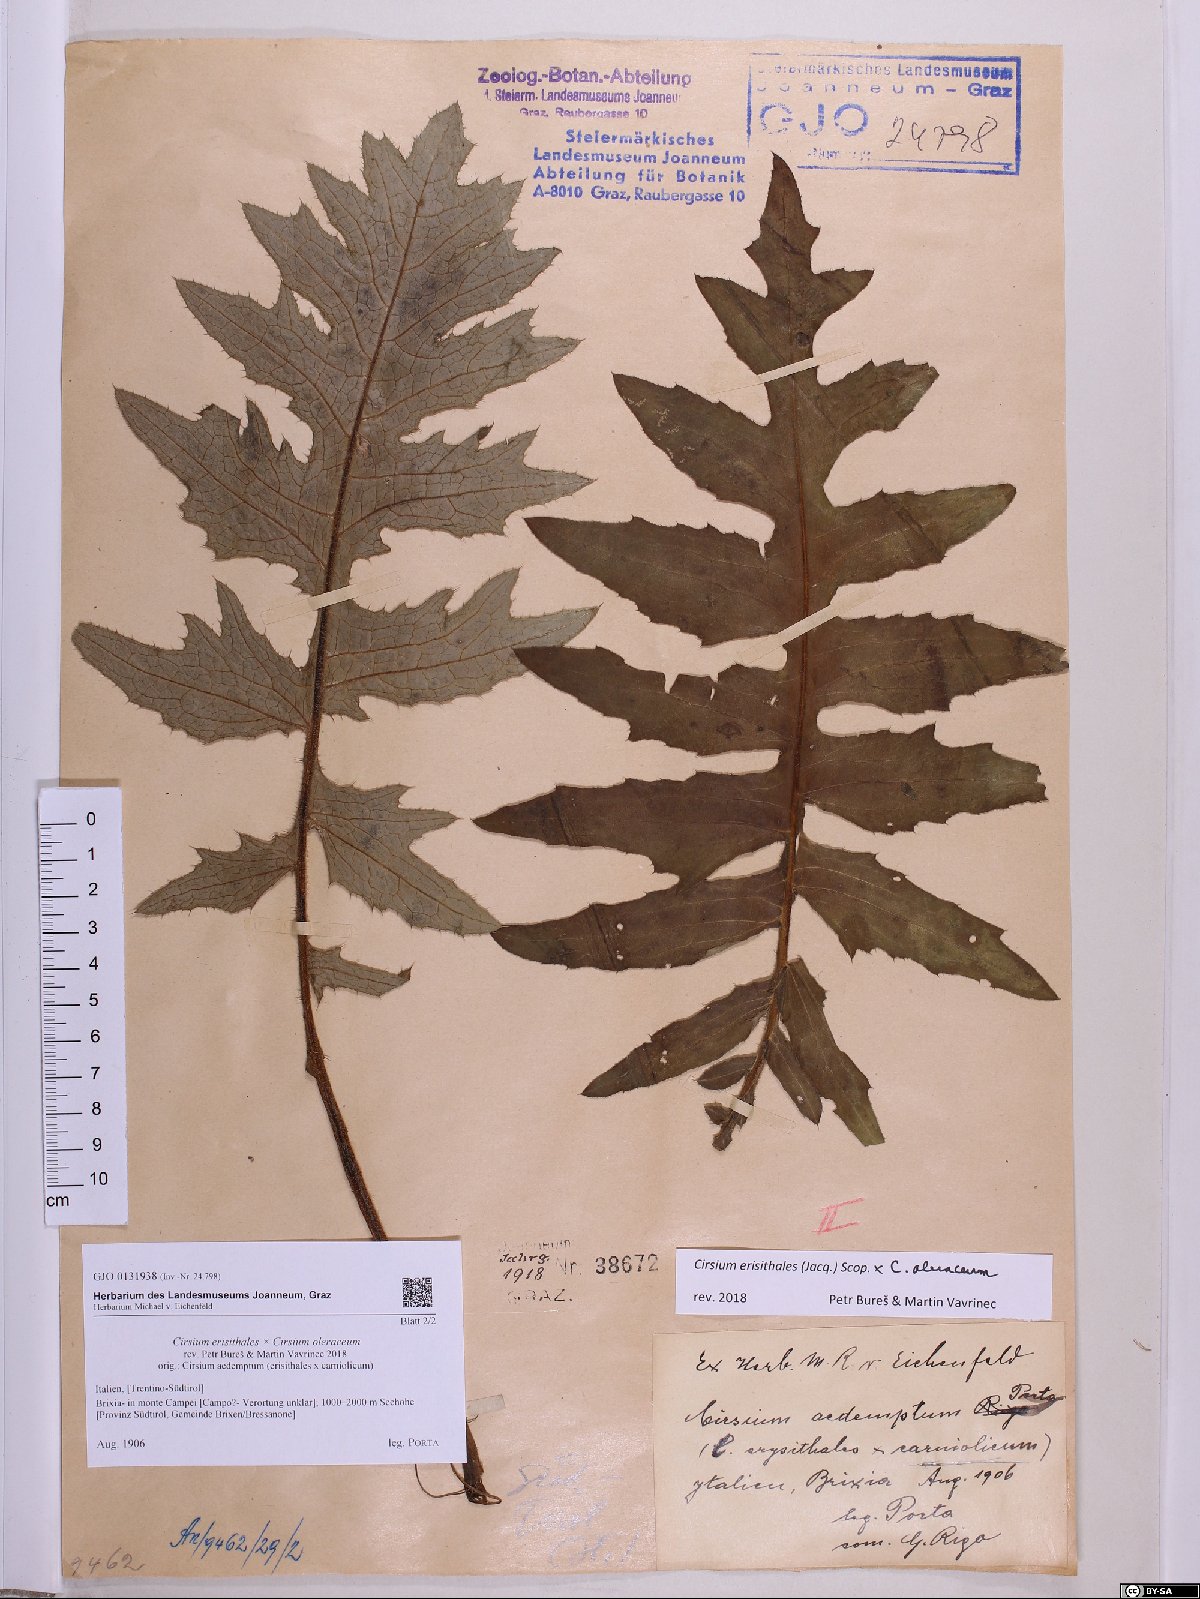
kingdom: Plantae
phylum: Tracheophyta
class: Magnoliopsida
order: Asterales
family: Asteraceae
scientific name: Asteraceae
